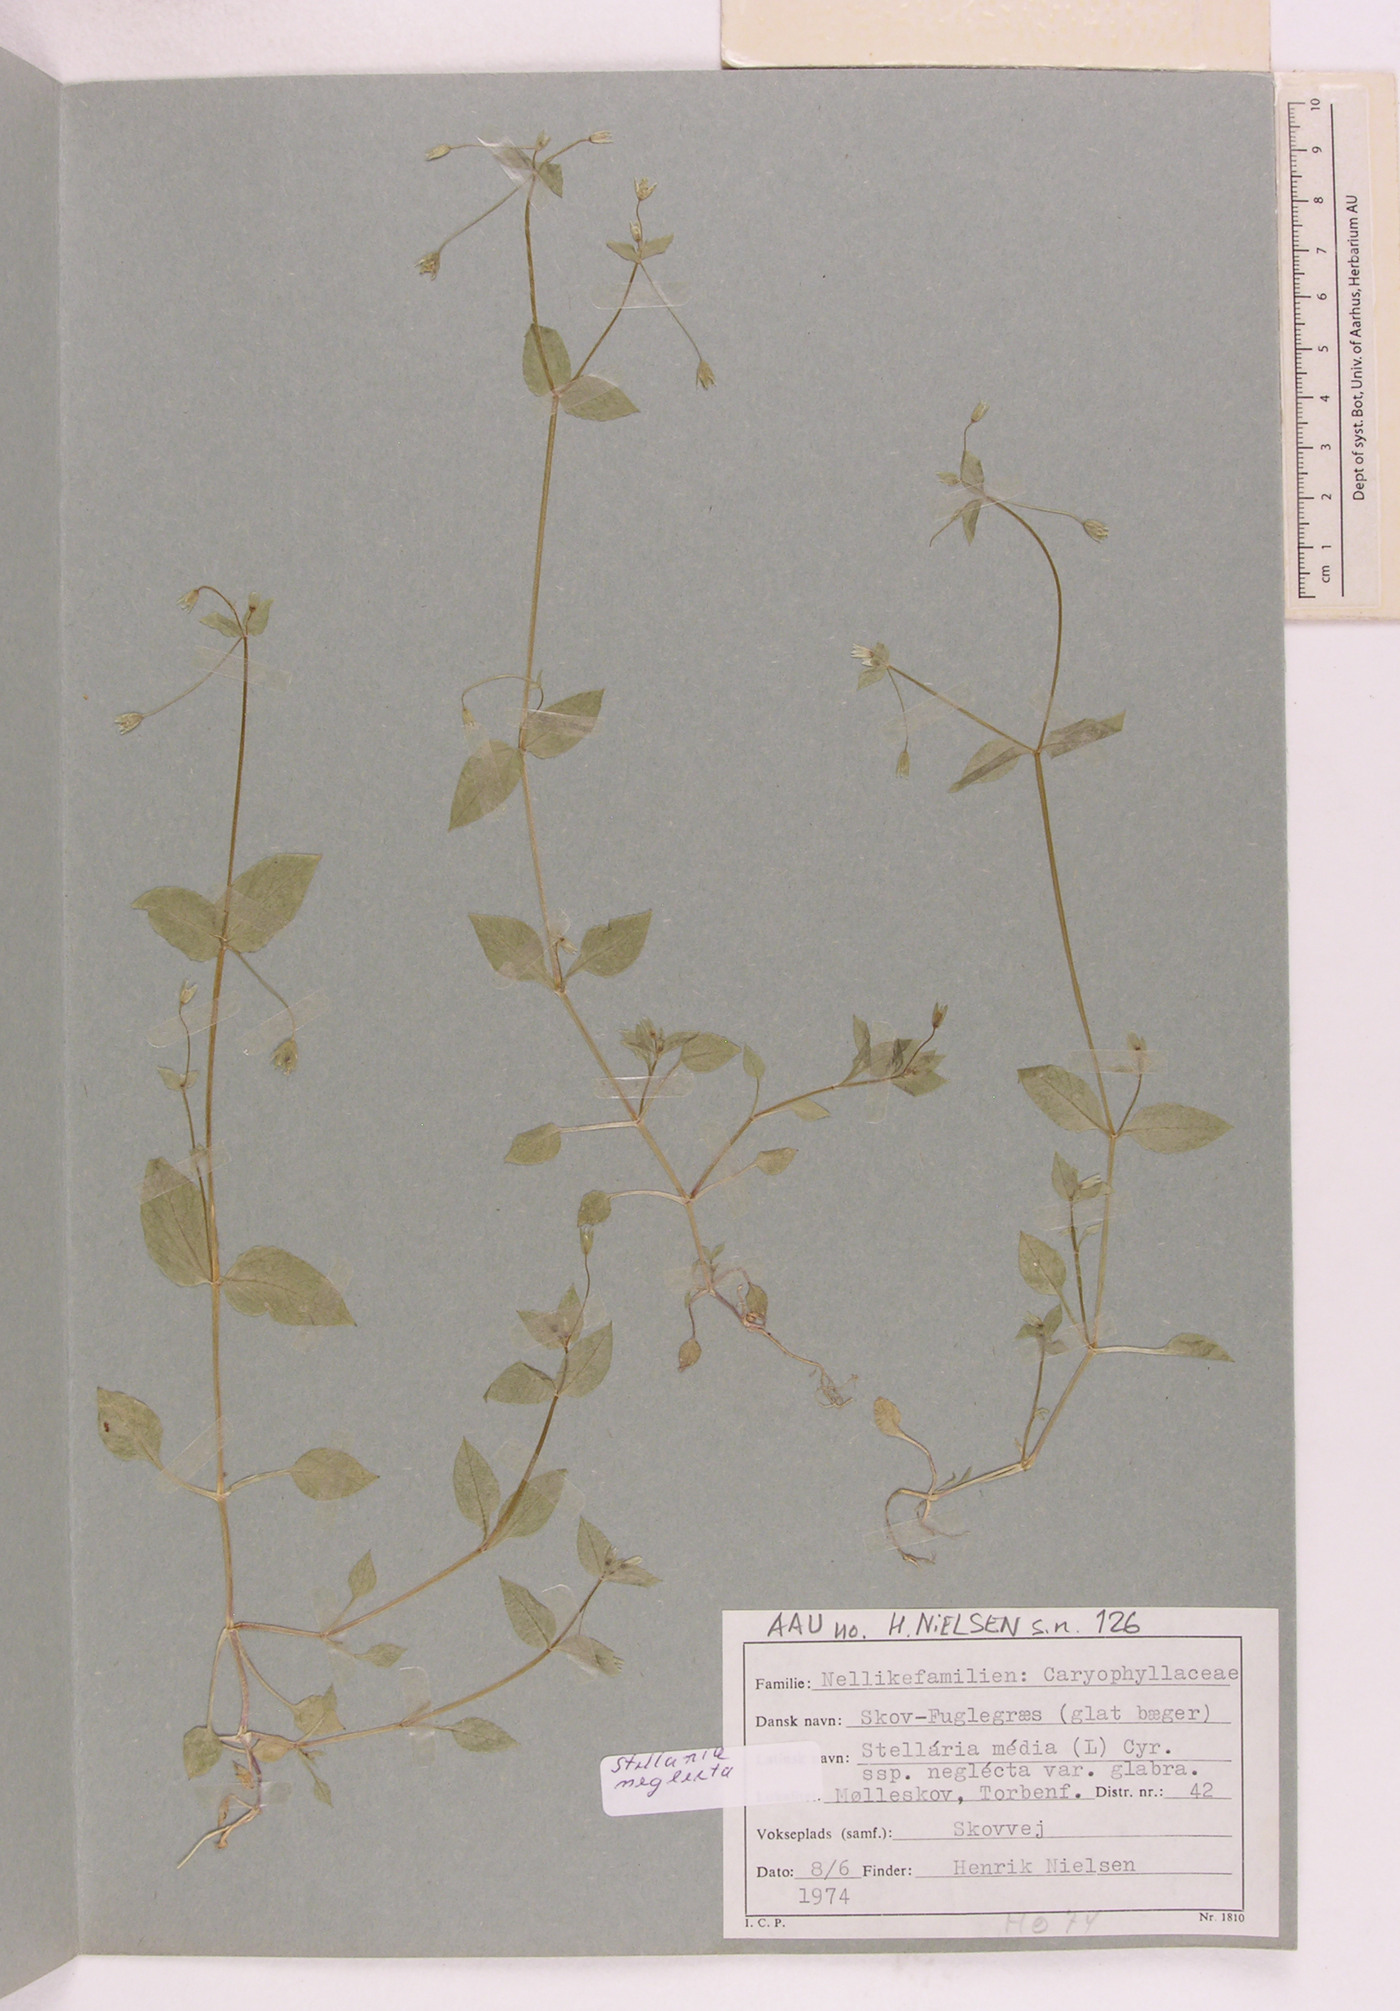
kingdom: Plantae
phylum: Tracheophyta
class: Magnoliopsida
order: Caryophyllales
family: Caryophyllaceae
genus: Stellaria
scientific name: Stellaria neglecta
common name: Greater chickweed
